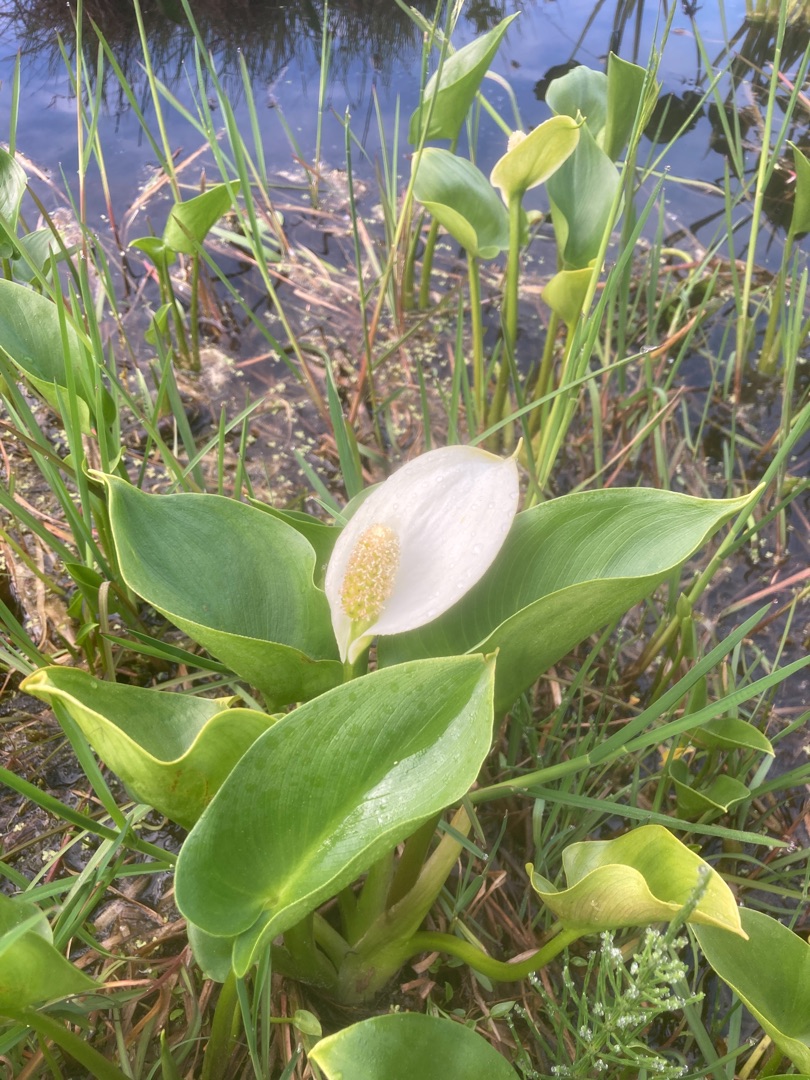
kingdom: Plantae
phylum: Tracheophyta
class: Liliopsida
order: Alismatales
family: Araceae
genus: Calla
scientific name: Calla palustris
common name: Kærmysse
